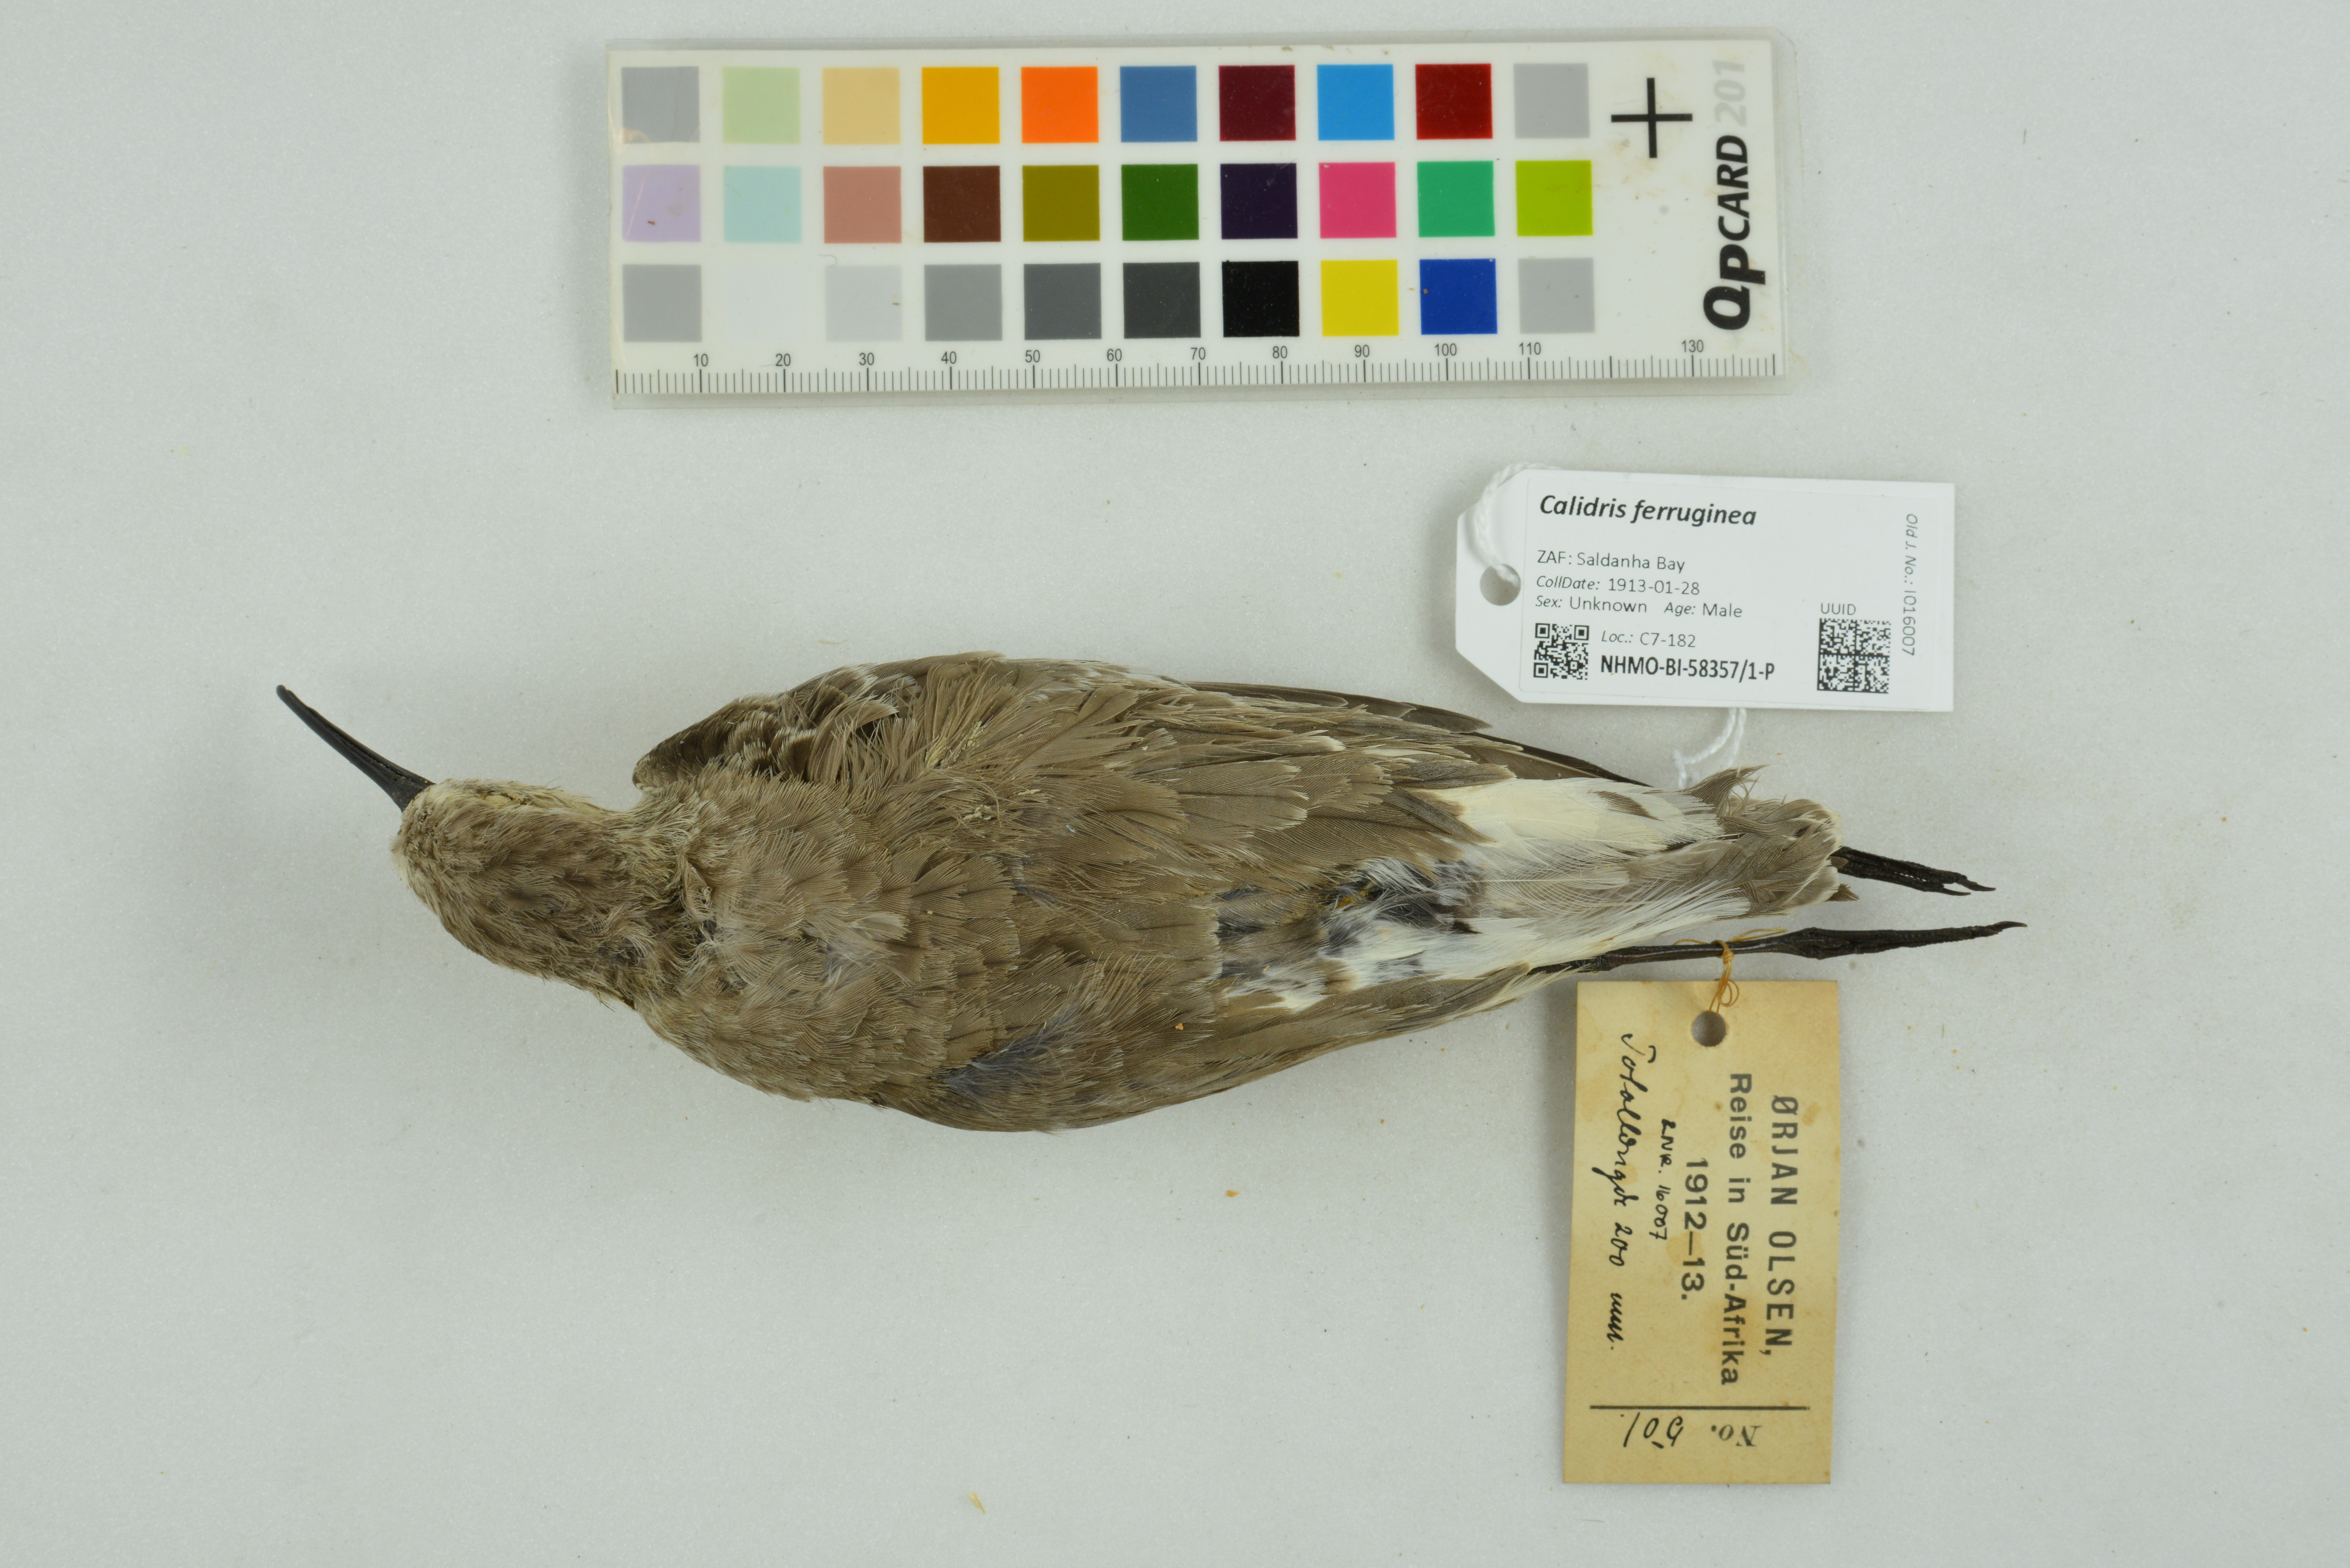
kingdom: Animalia
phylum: Chordata
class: Aves
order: Charadriiformes
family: Scolopacidae
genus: Calidris
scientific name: Calidris ferruginea
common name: Curlew sandpiper
